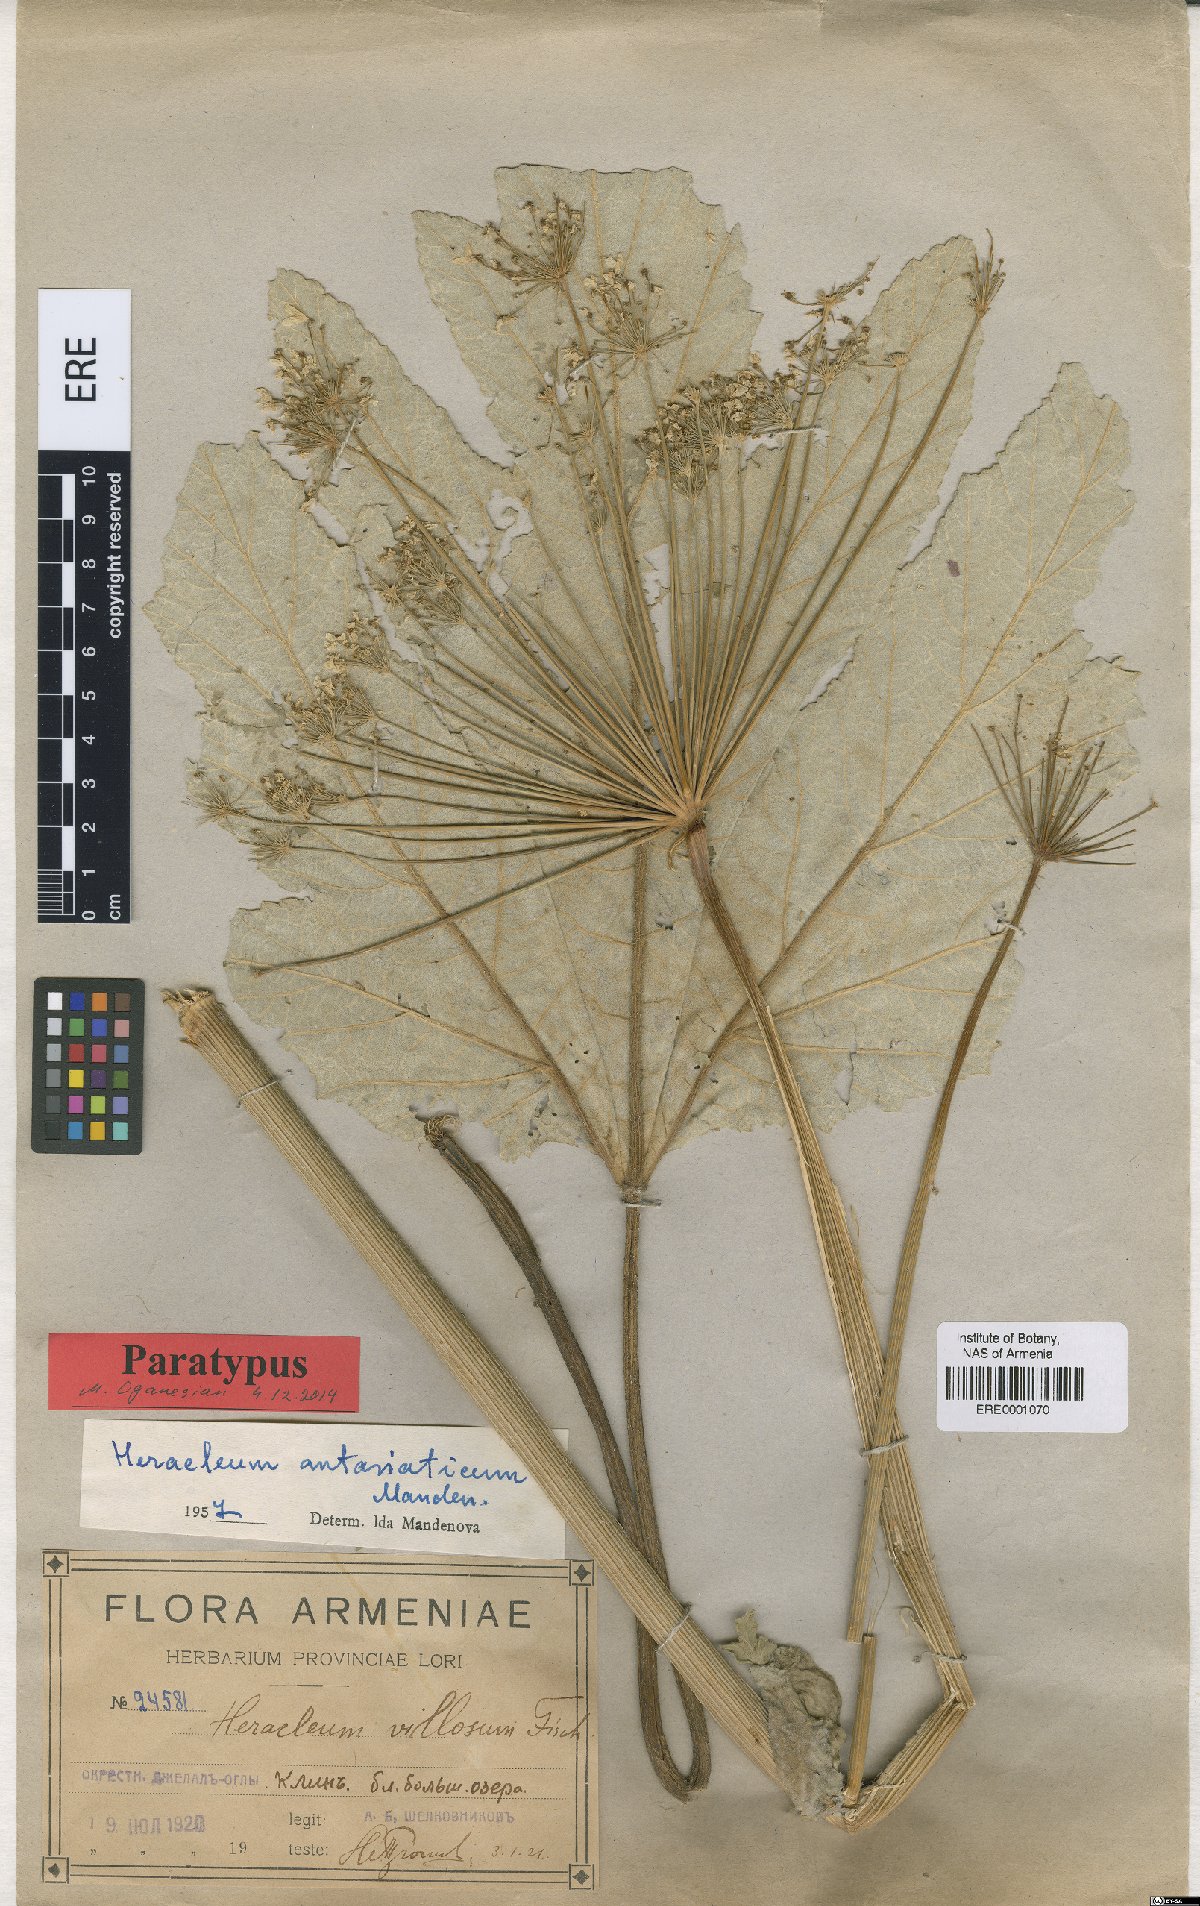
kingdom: Plantae
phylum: Tracheophyta
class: Magnoliopsida
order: Apiales
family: Apiaceae
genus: Heracleum
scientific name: Heracleum antasiaticum
